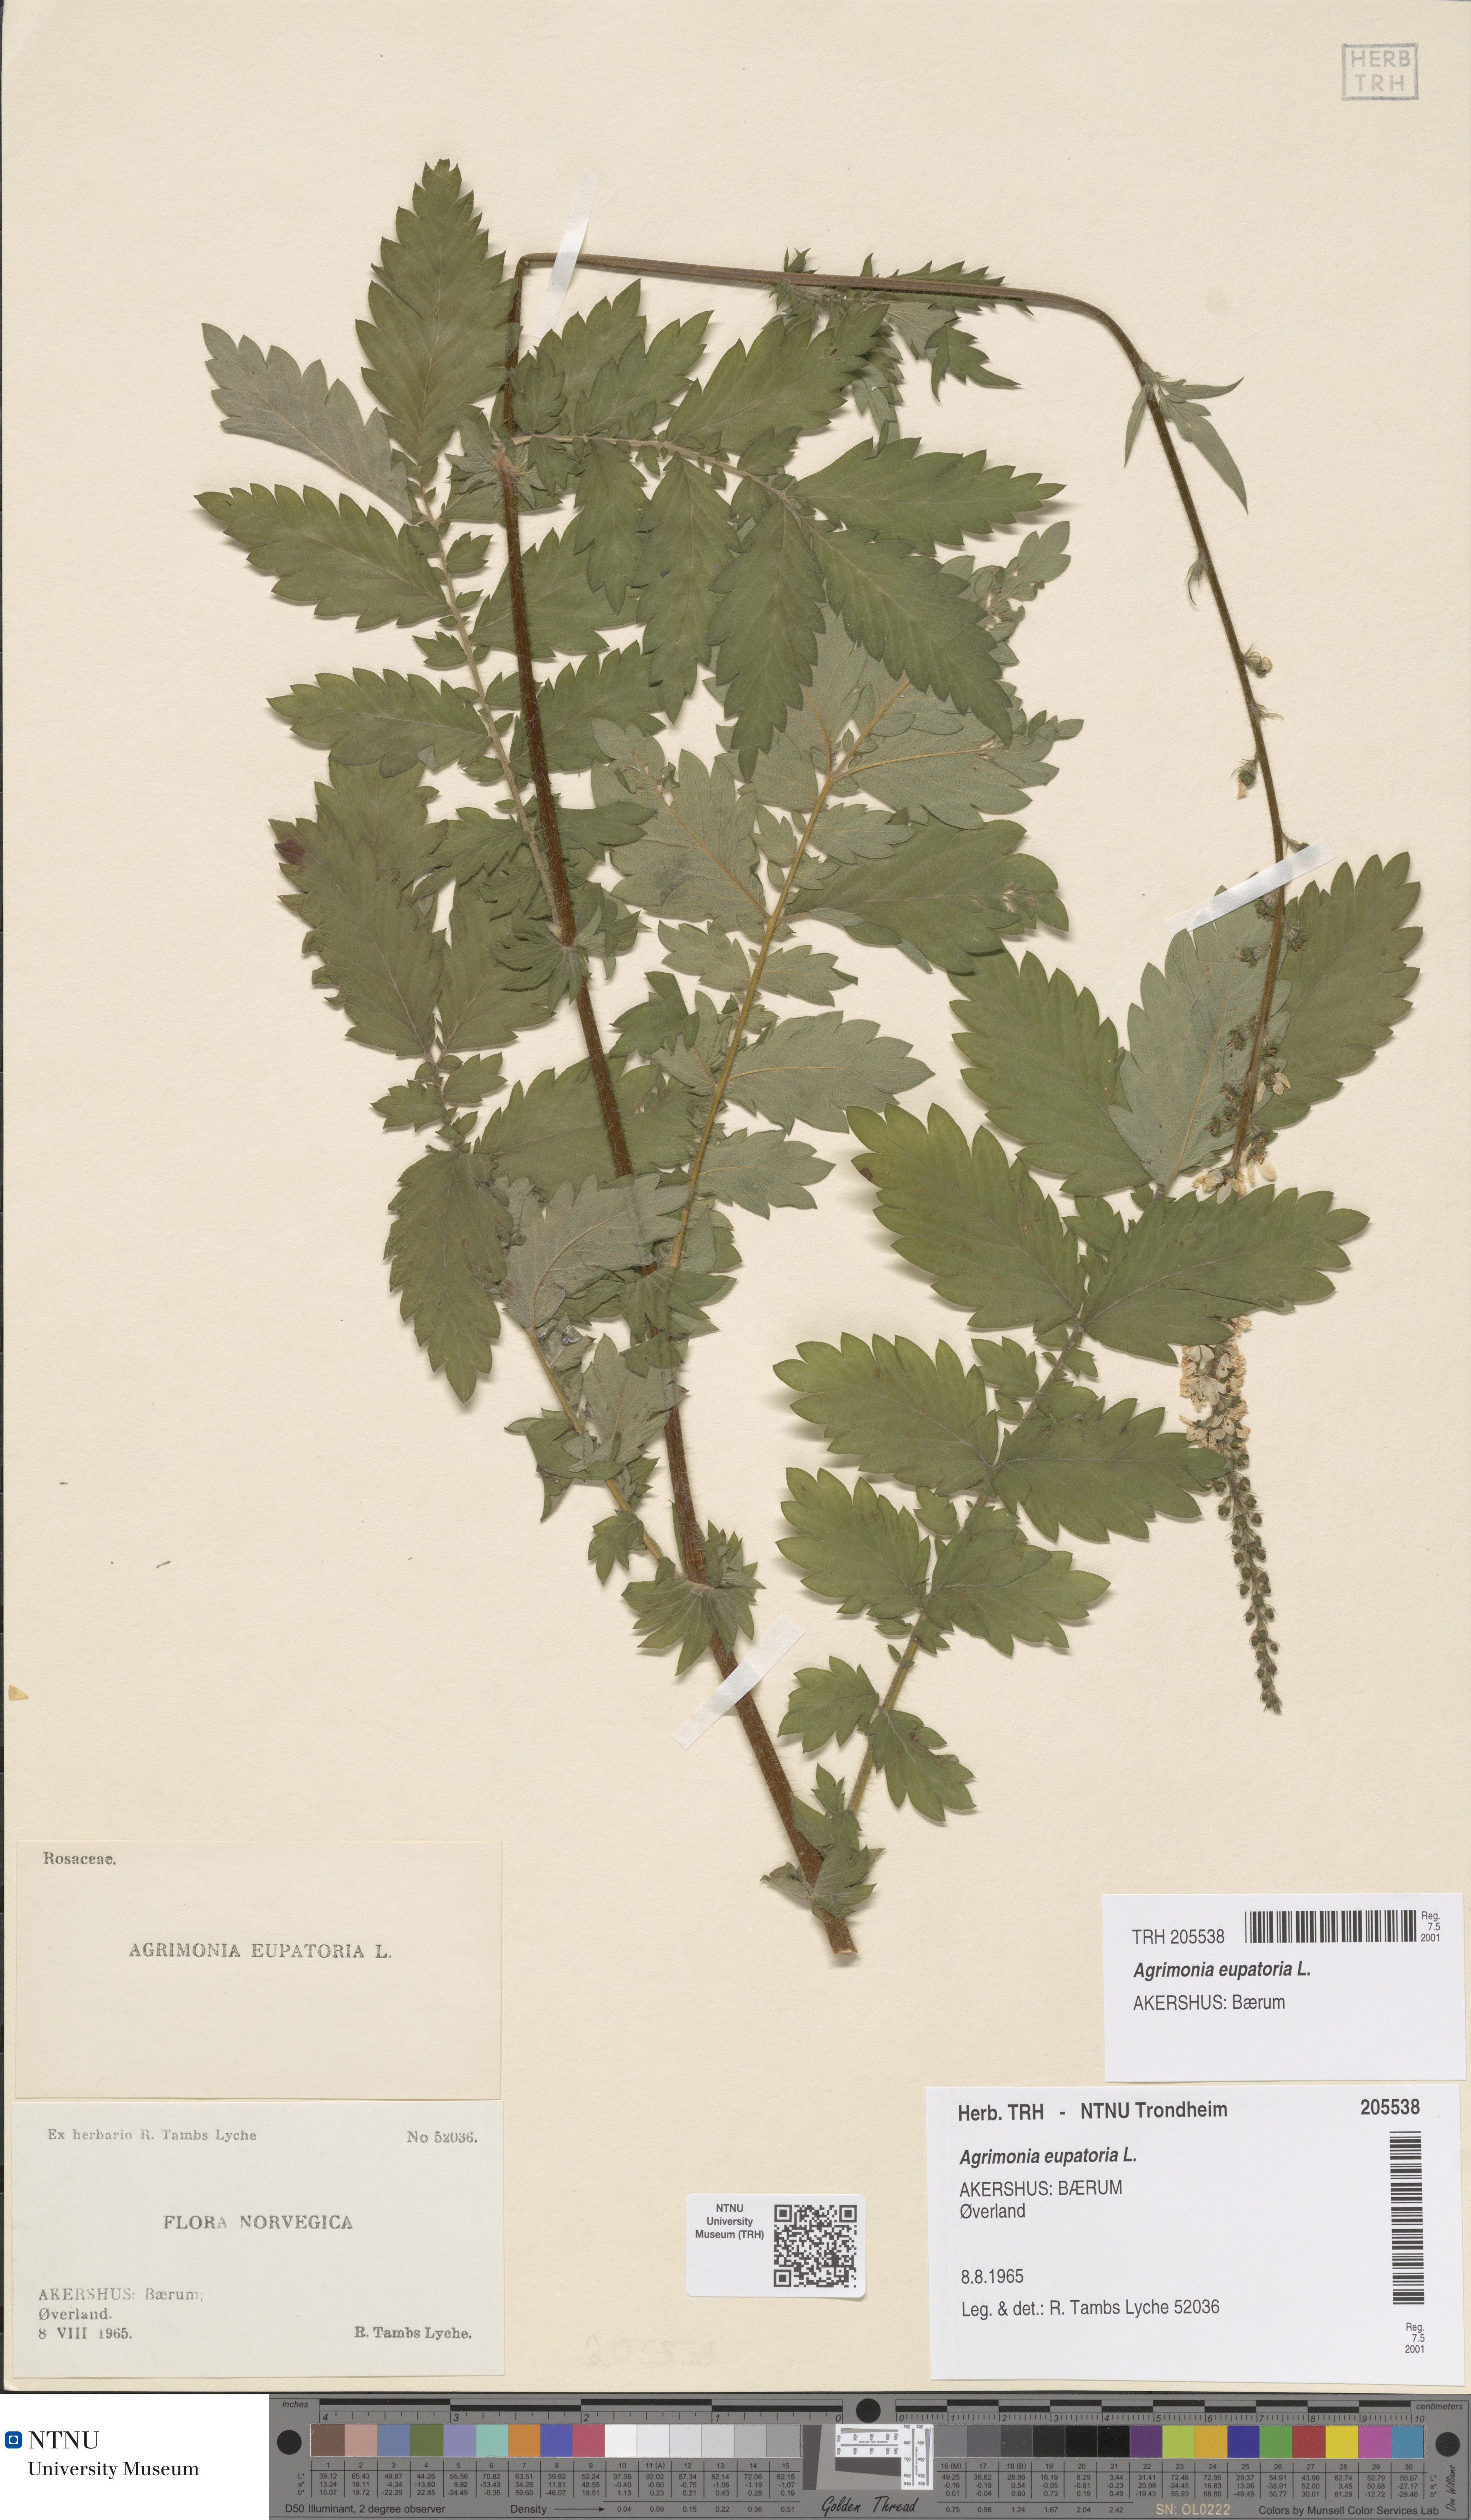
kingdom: Plantae
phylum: Tracheophyta
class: Magnoliopsida
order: Rosales
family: Rosaceae
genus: Agrimonia
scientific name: Agrimonia eupatoria
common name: Agrimony
